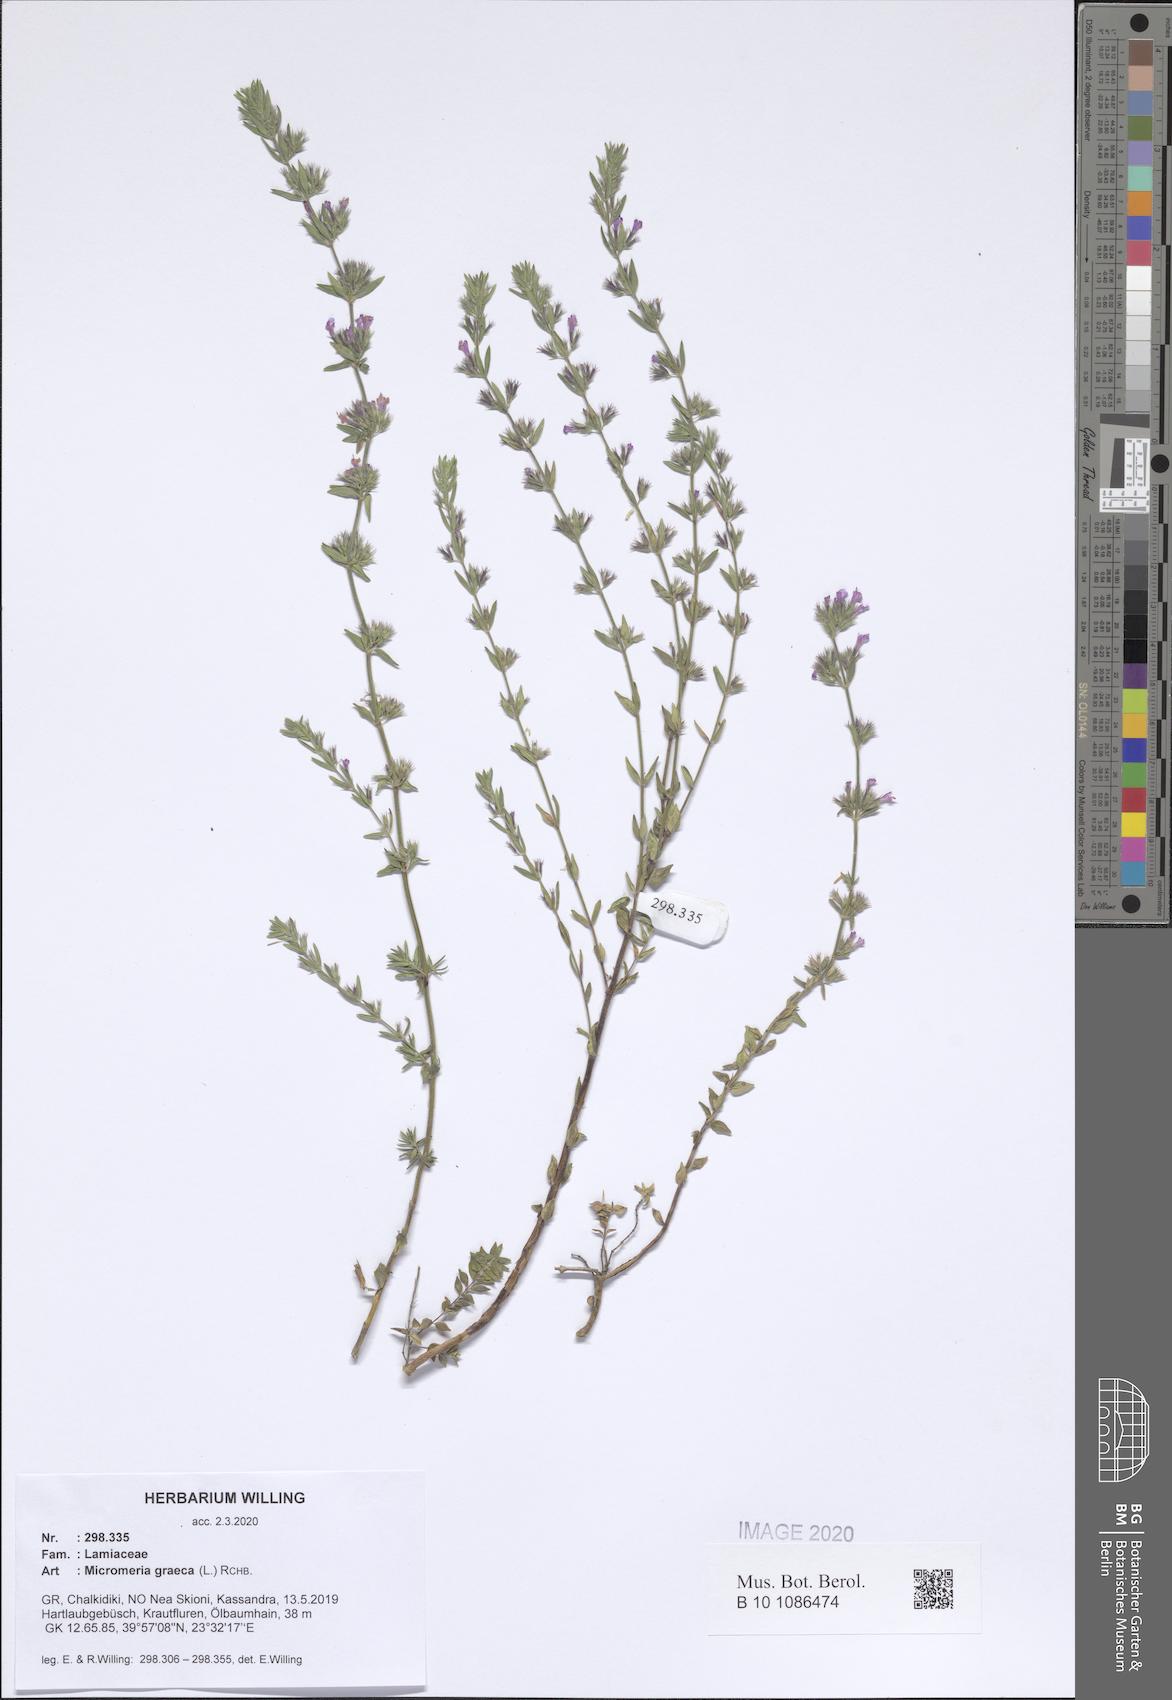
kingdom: Plantae
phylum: Tracheophyta
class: Magnoliopsida
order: Lamiales
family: Lamiaceae
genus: Micromeria
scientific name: Micromeria graeca
